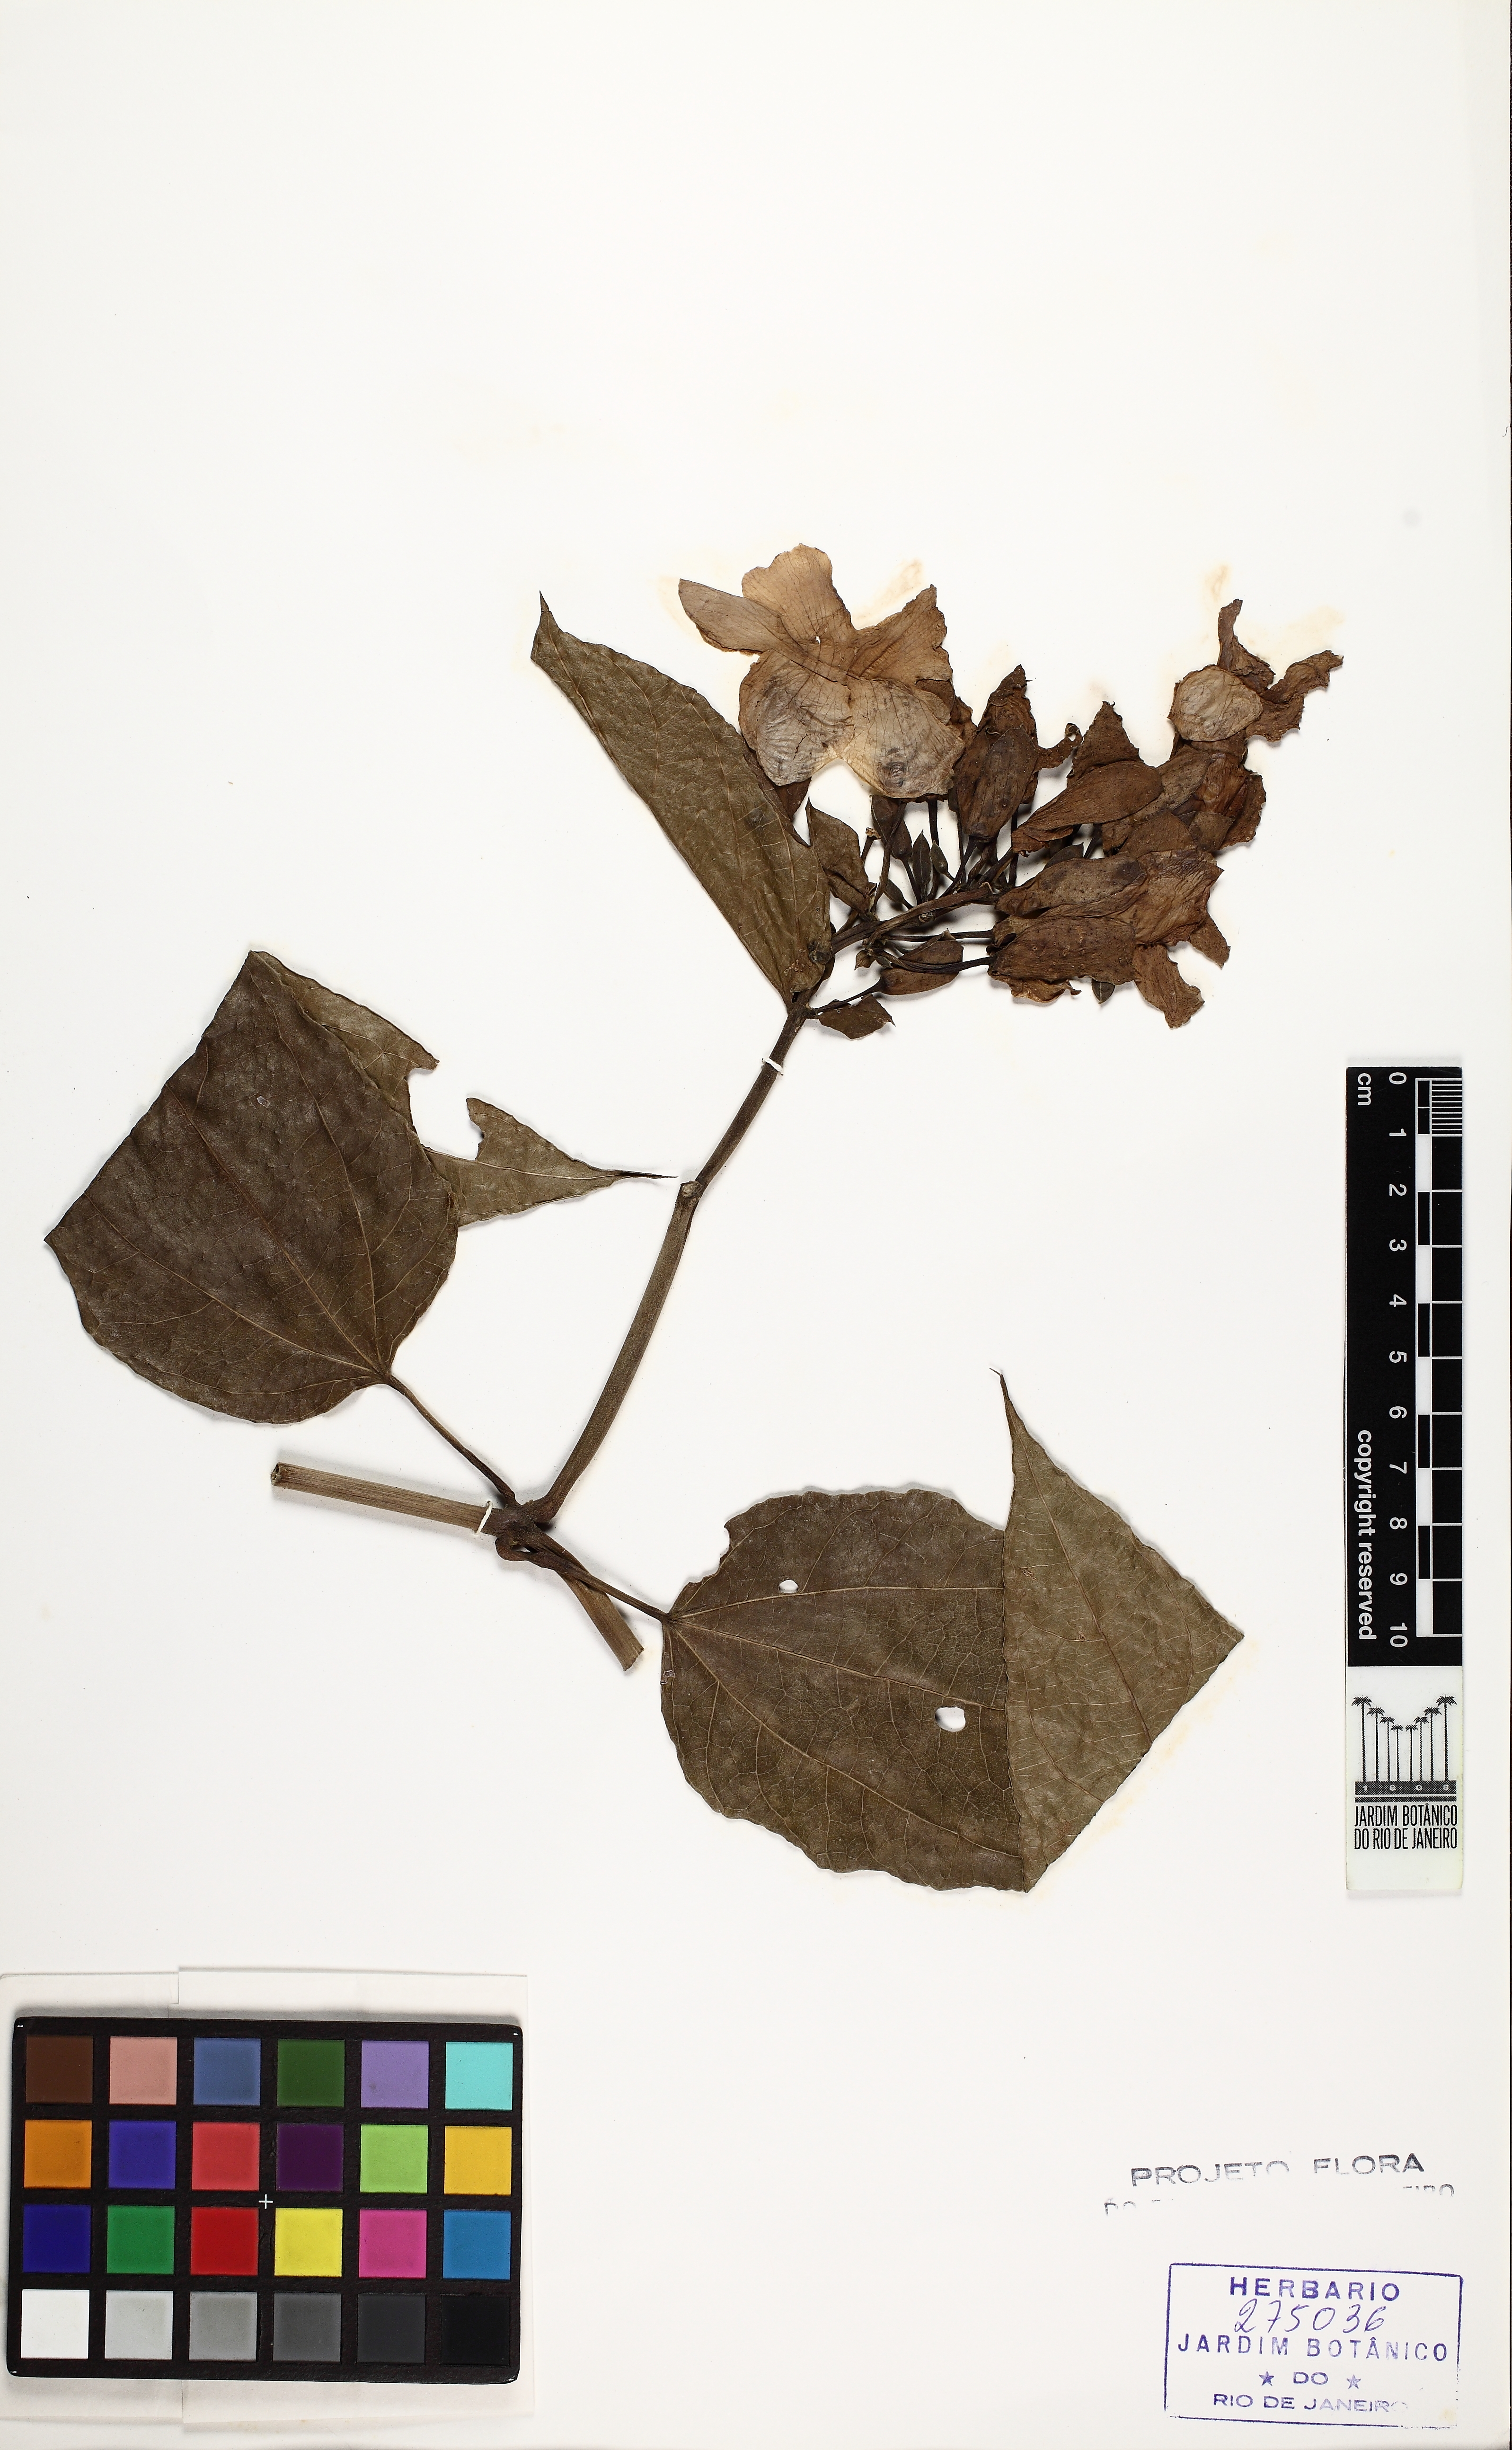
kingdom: Plantae
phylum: Tracheophyta
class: Magnoliopsida
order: Lamiales
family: Acanthaceae
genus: Thunbergia
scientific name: Thunbergia grandiflora
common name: Bengal trumpet
